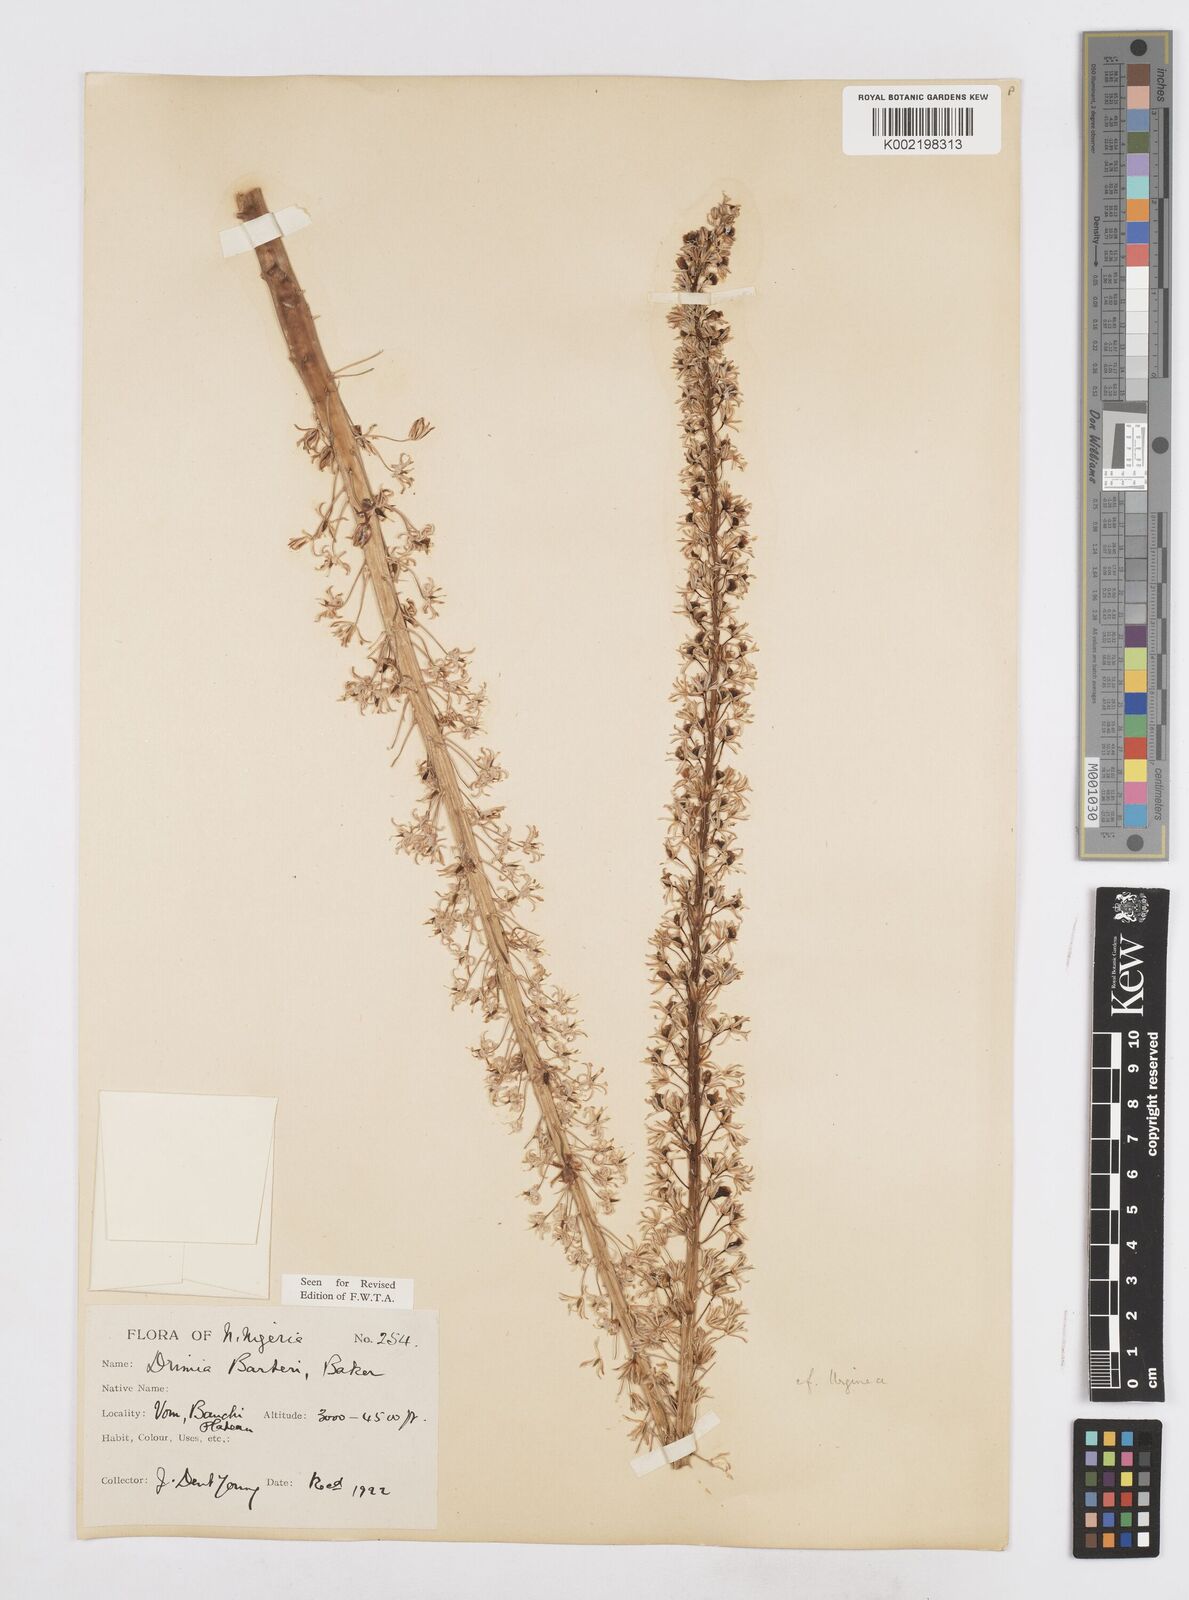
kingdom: Plantae
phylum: Tracheophyta
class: Liliopsida
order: Asparagales
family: Asparagaceae
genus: Drimia
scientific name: Drimia altissima
